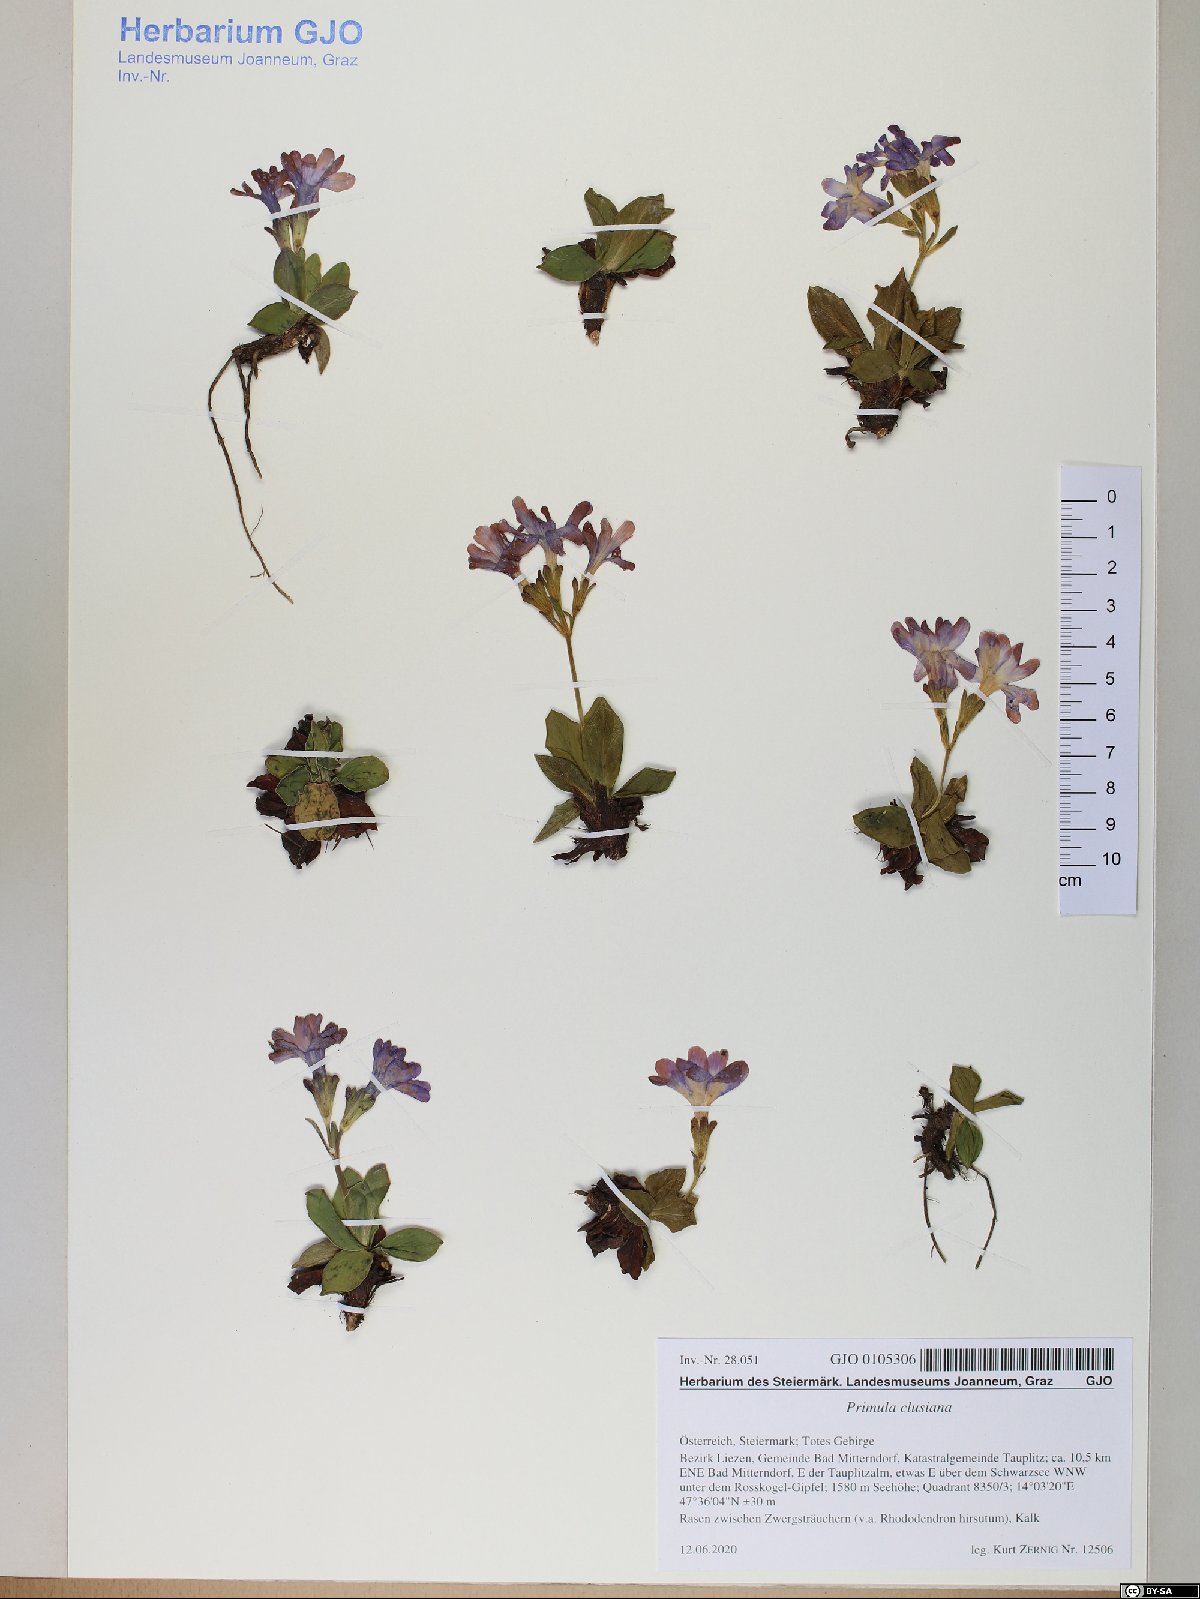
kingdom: Plantae
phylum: Tracheophyta
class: Magnoliopsida
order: Ericales
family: Primulaceae
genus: Primula
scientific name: Primula clusiana
